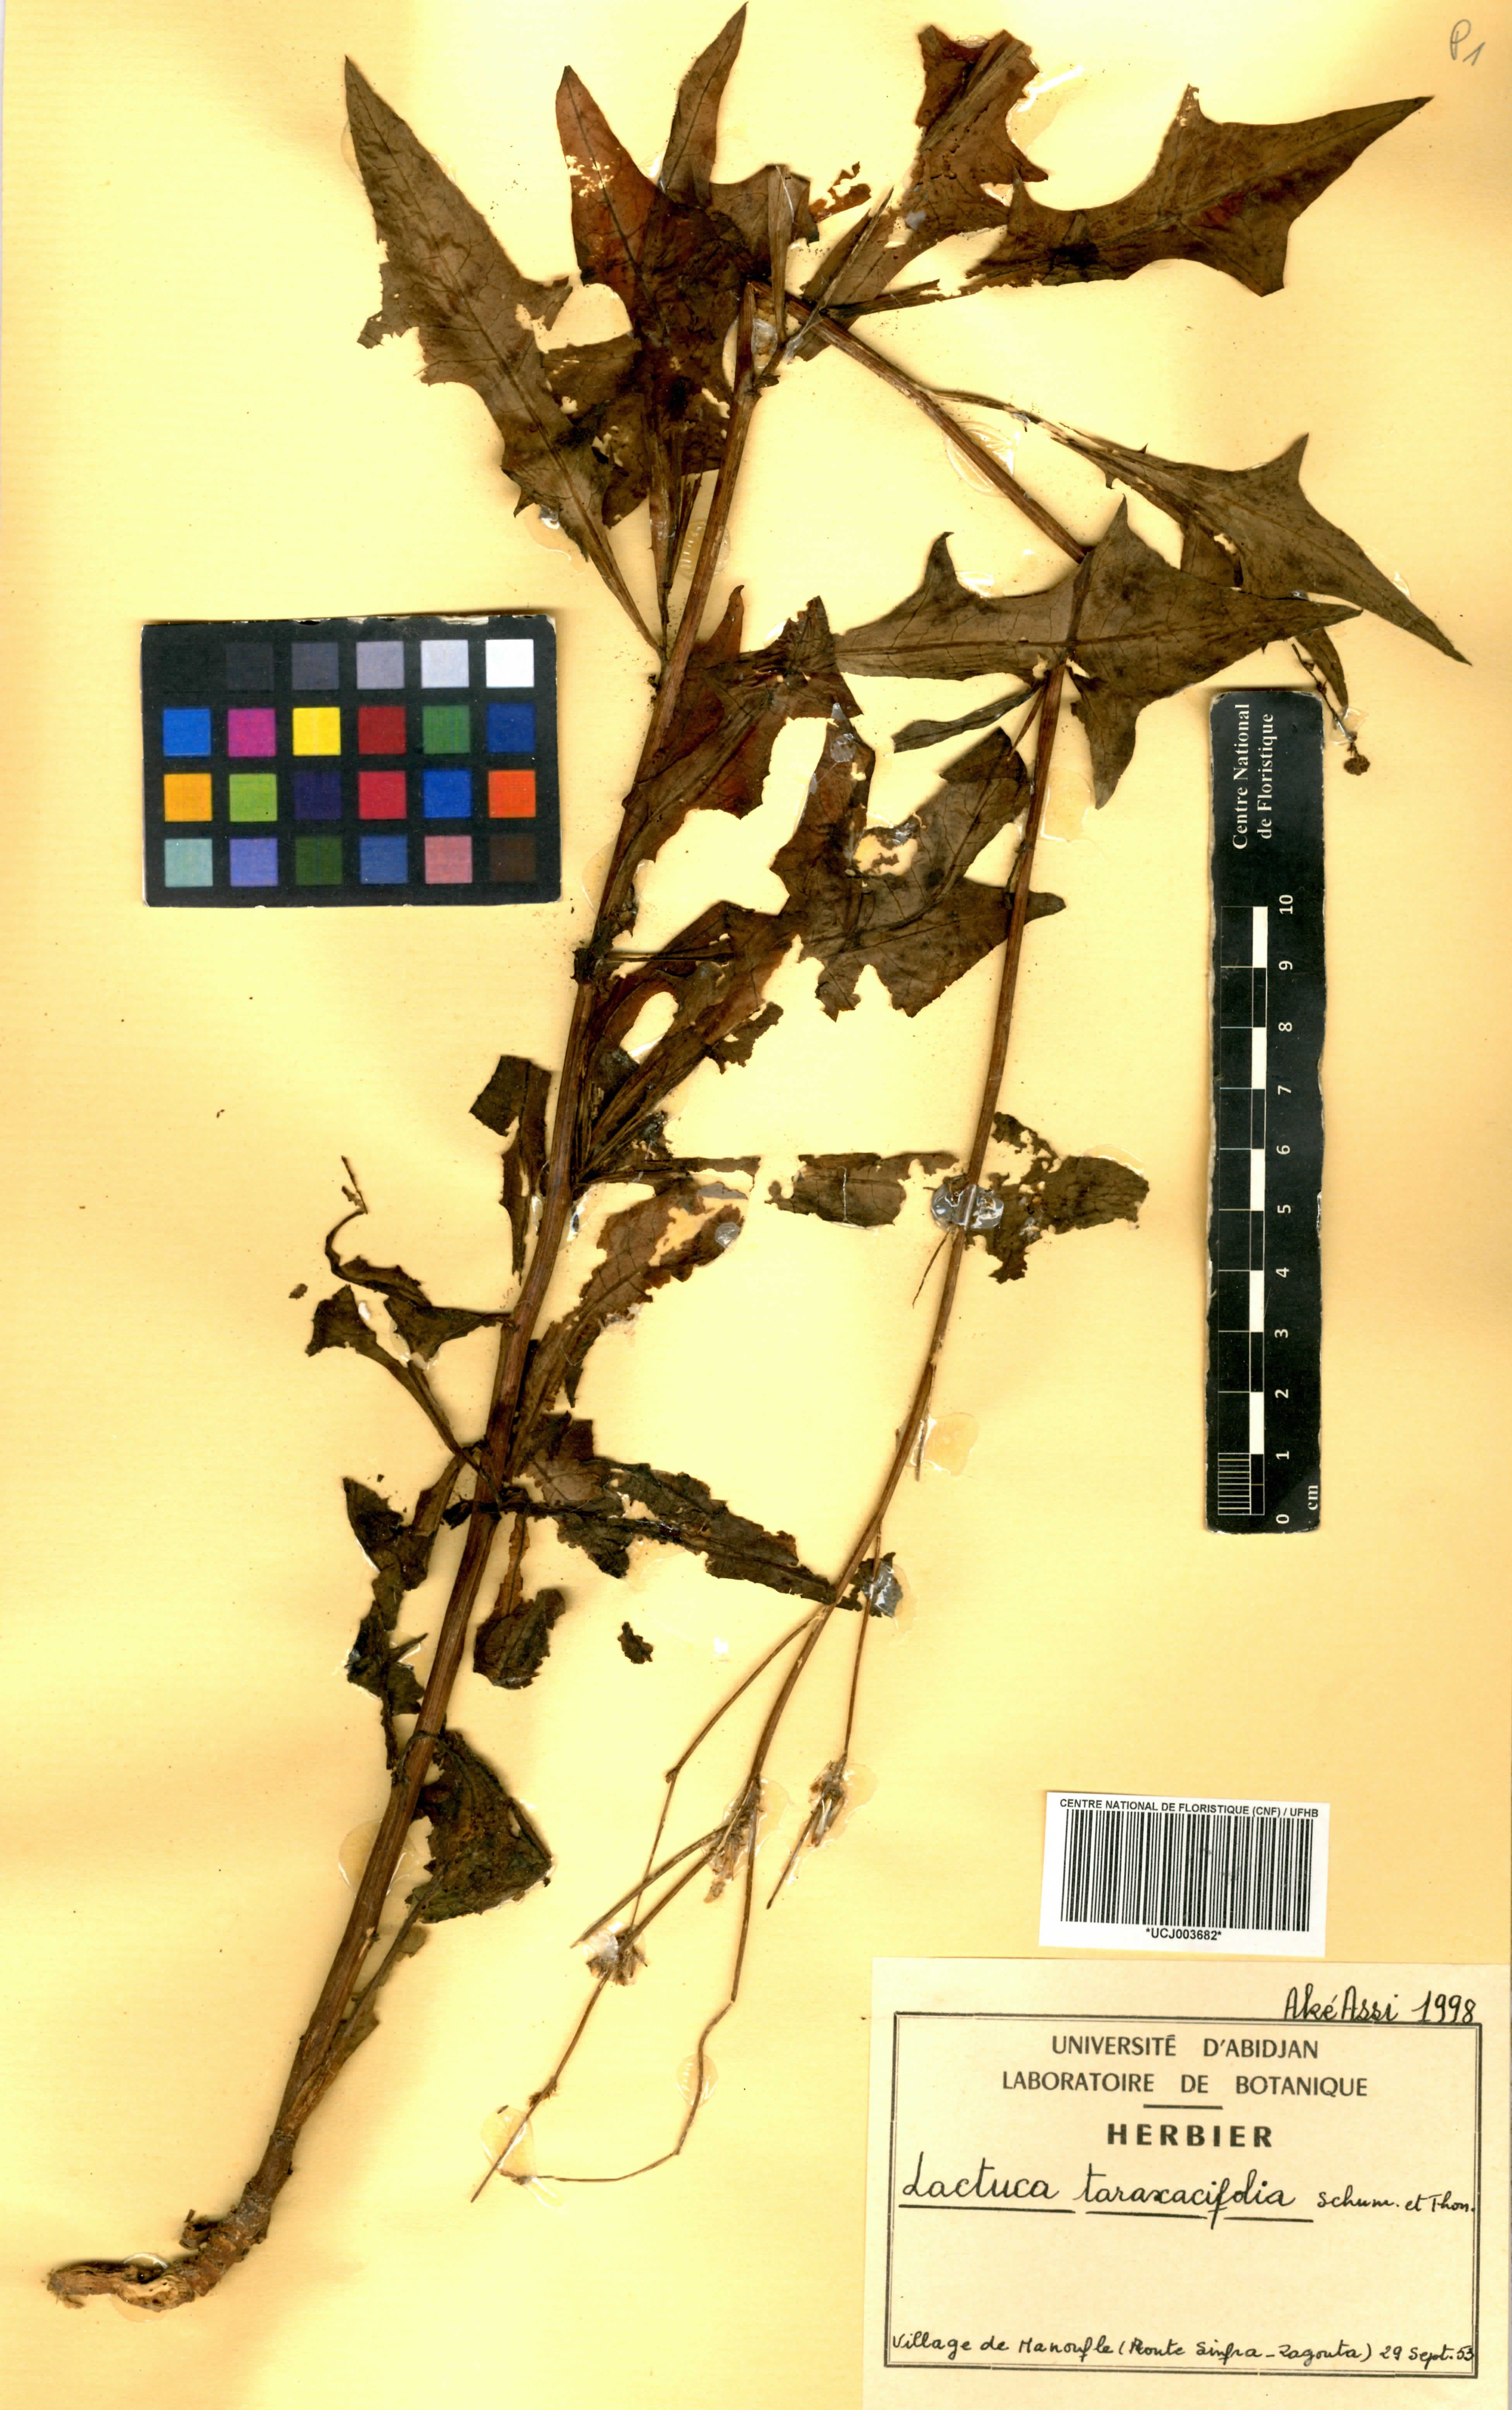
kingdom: Plantae
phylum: Tracheophyta
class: Magnoliopsida
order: Asterales
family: Asteraceae
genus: Launaea
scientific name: Launaea taraxacifolia
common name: African-lettuce
